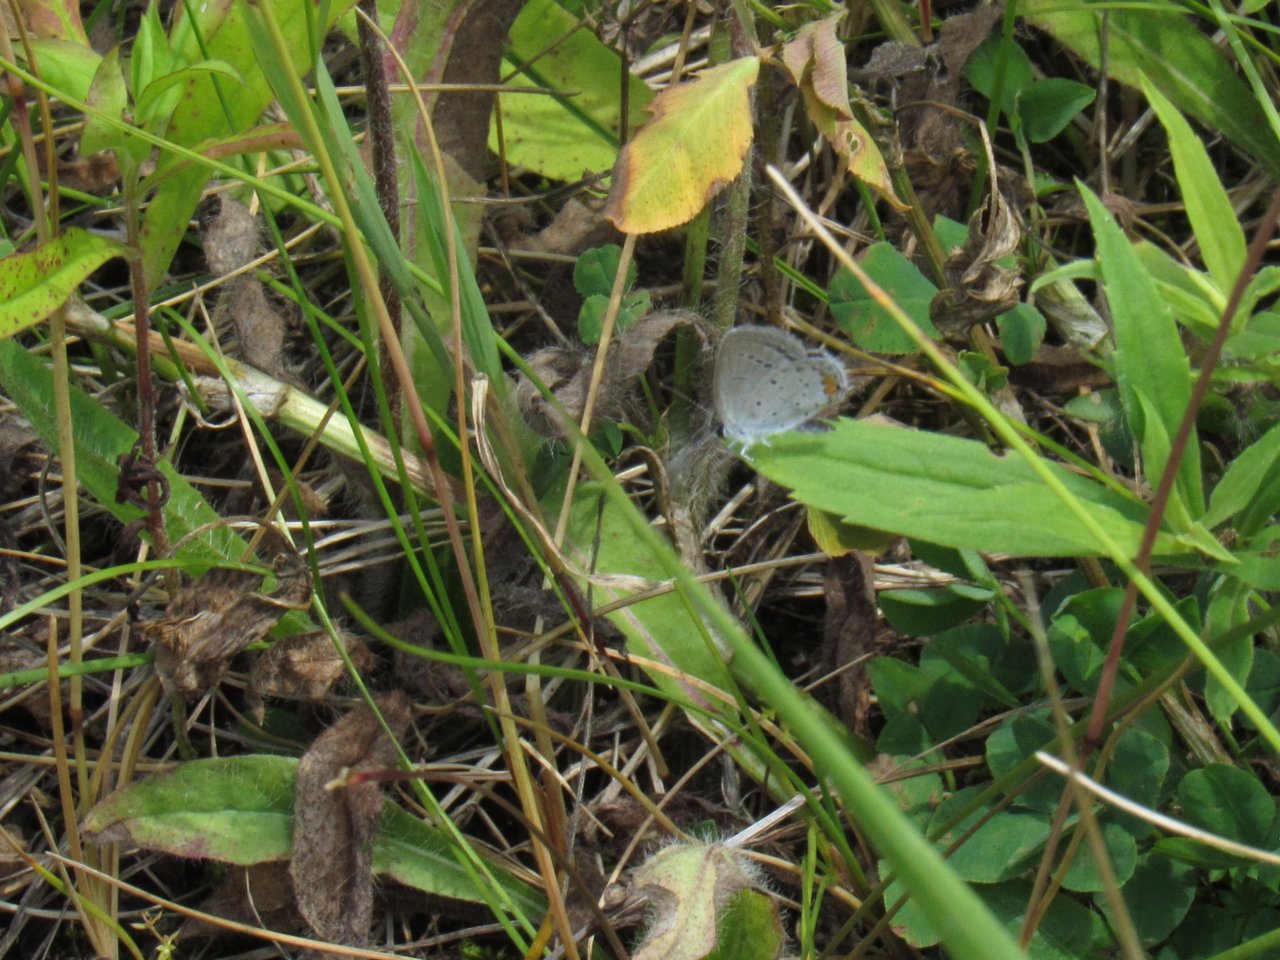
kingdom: Animalia
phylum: Arthropoda
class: Insecta
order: Lepidoptera
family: Lycaenidae
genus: Elkalyce
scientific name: Elkalyce comyntas
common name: Eastern Tailed-Blue
